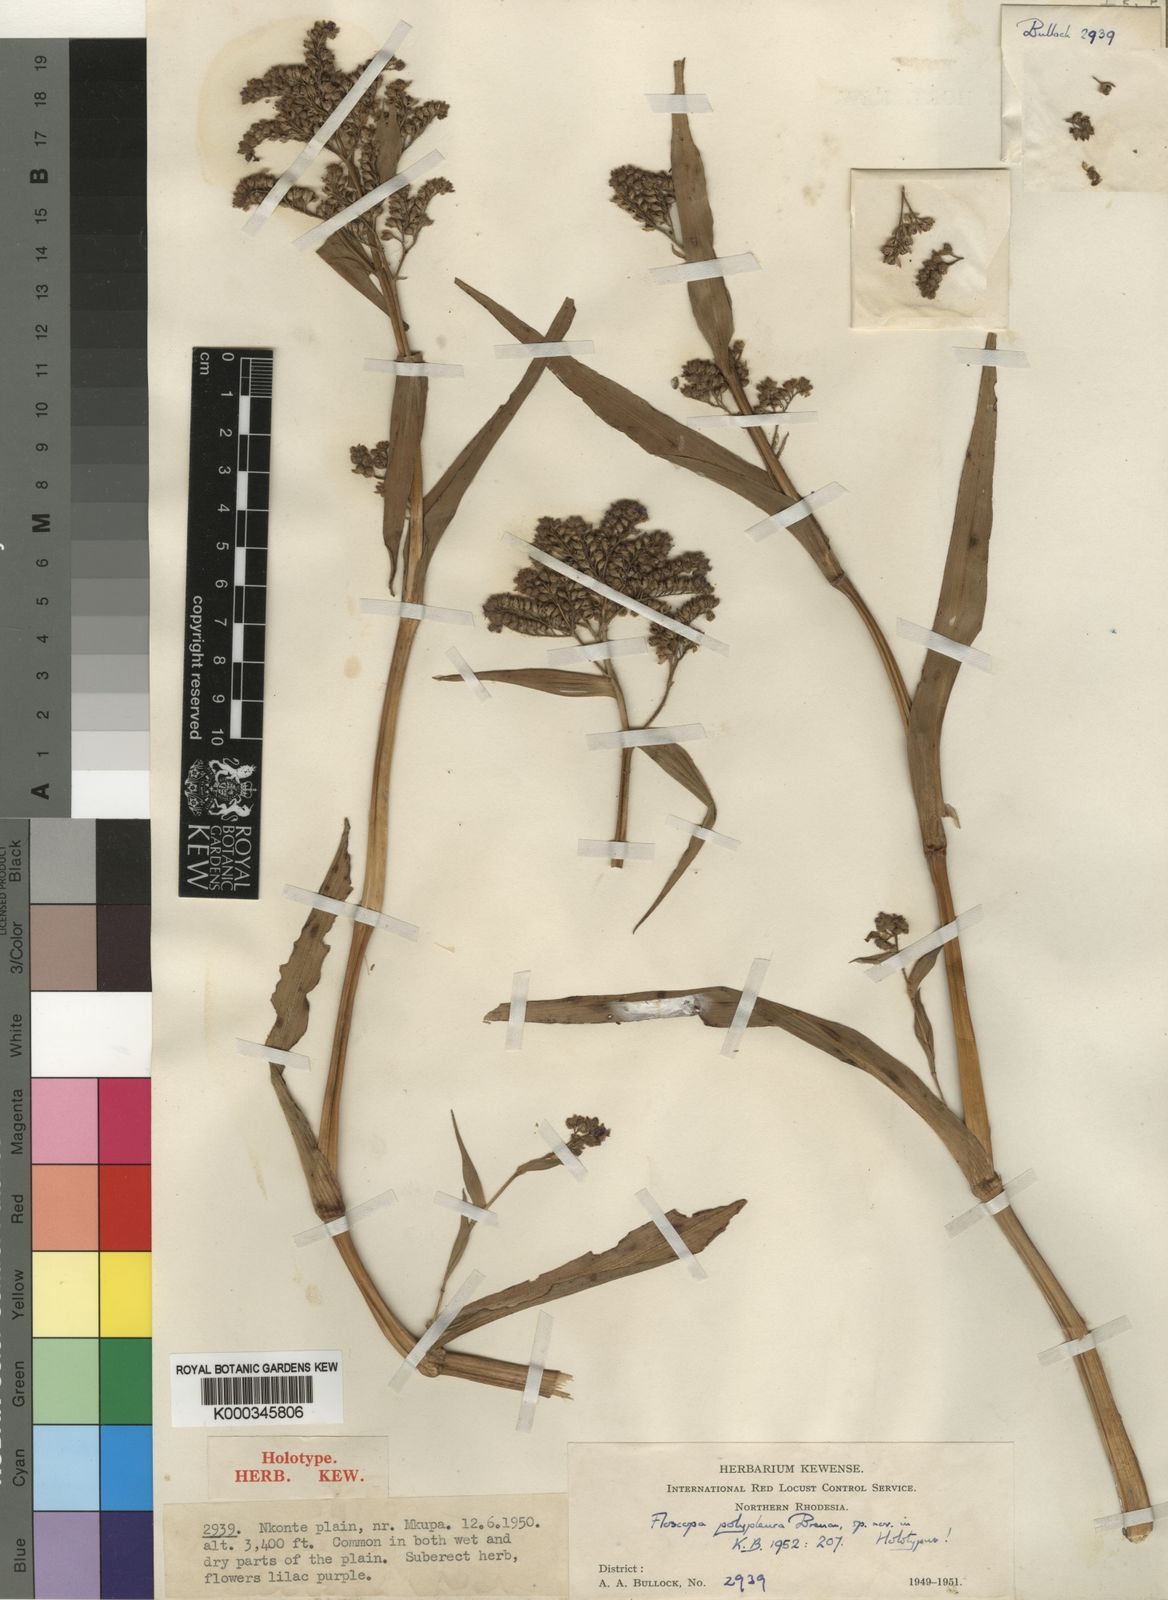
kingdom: Plantae
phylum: Tracheophyta
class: Liliopsida
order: Commelinales
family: Commelinaceae
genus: Floscopa
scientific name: Floscopa polypleura
